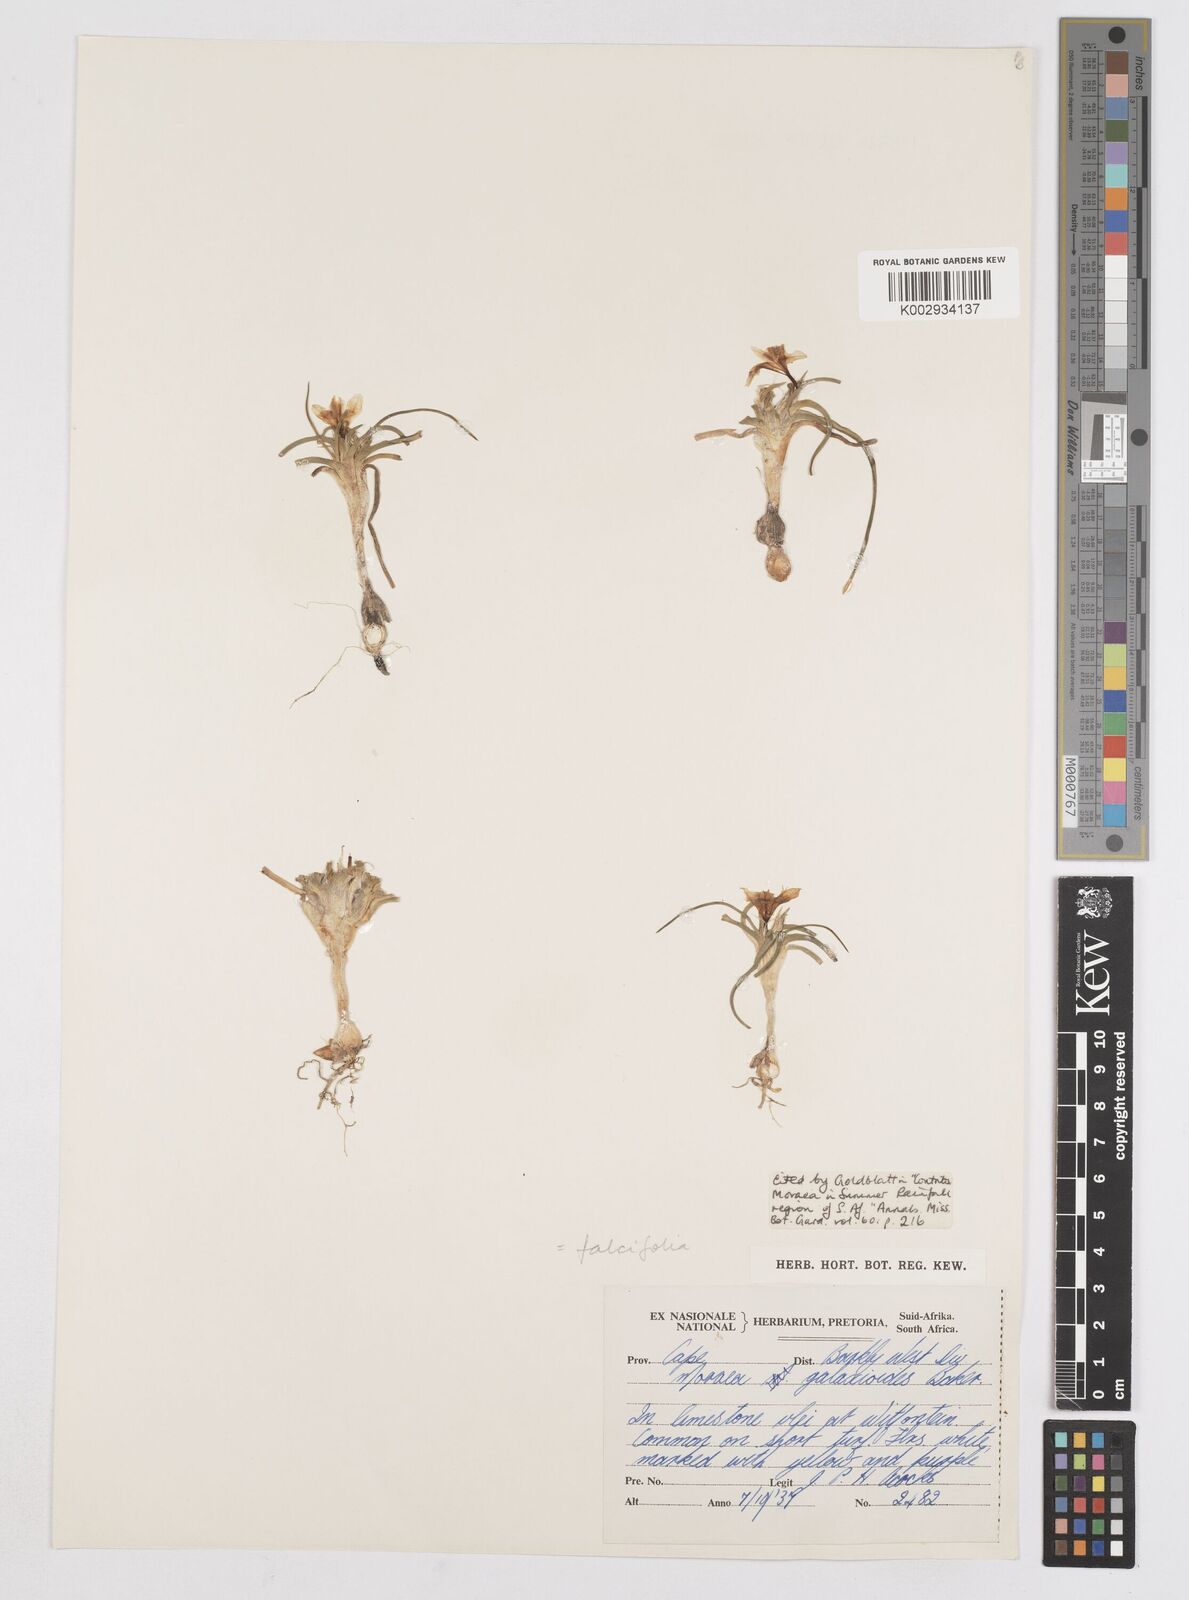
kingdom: Plantae
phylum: Tracheophyta
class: Liliopsida
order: Asparagales
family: Iridaceae
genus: Moraea
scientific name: Moraea falcifolia
